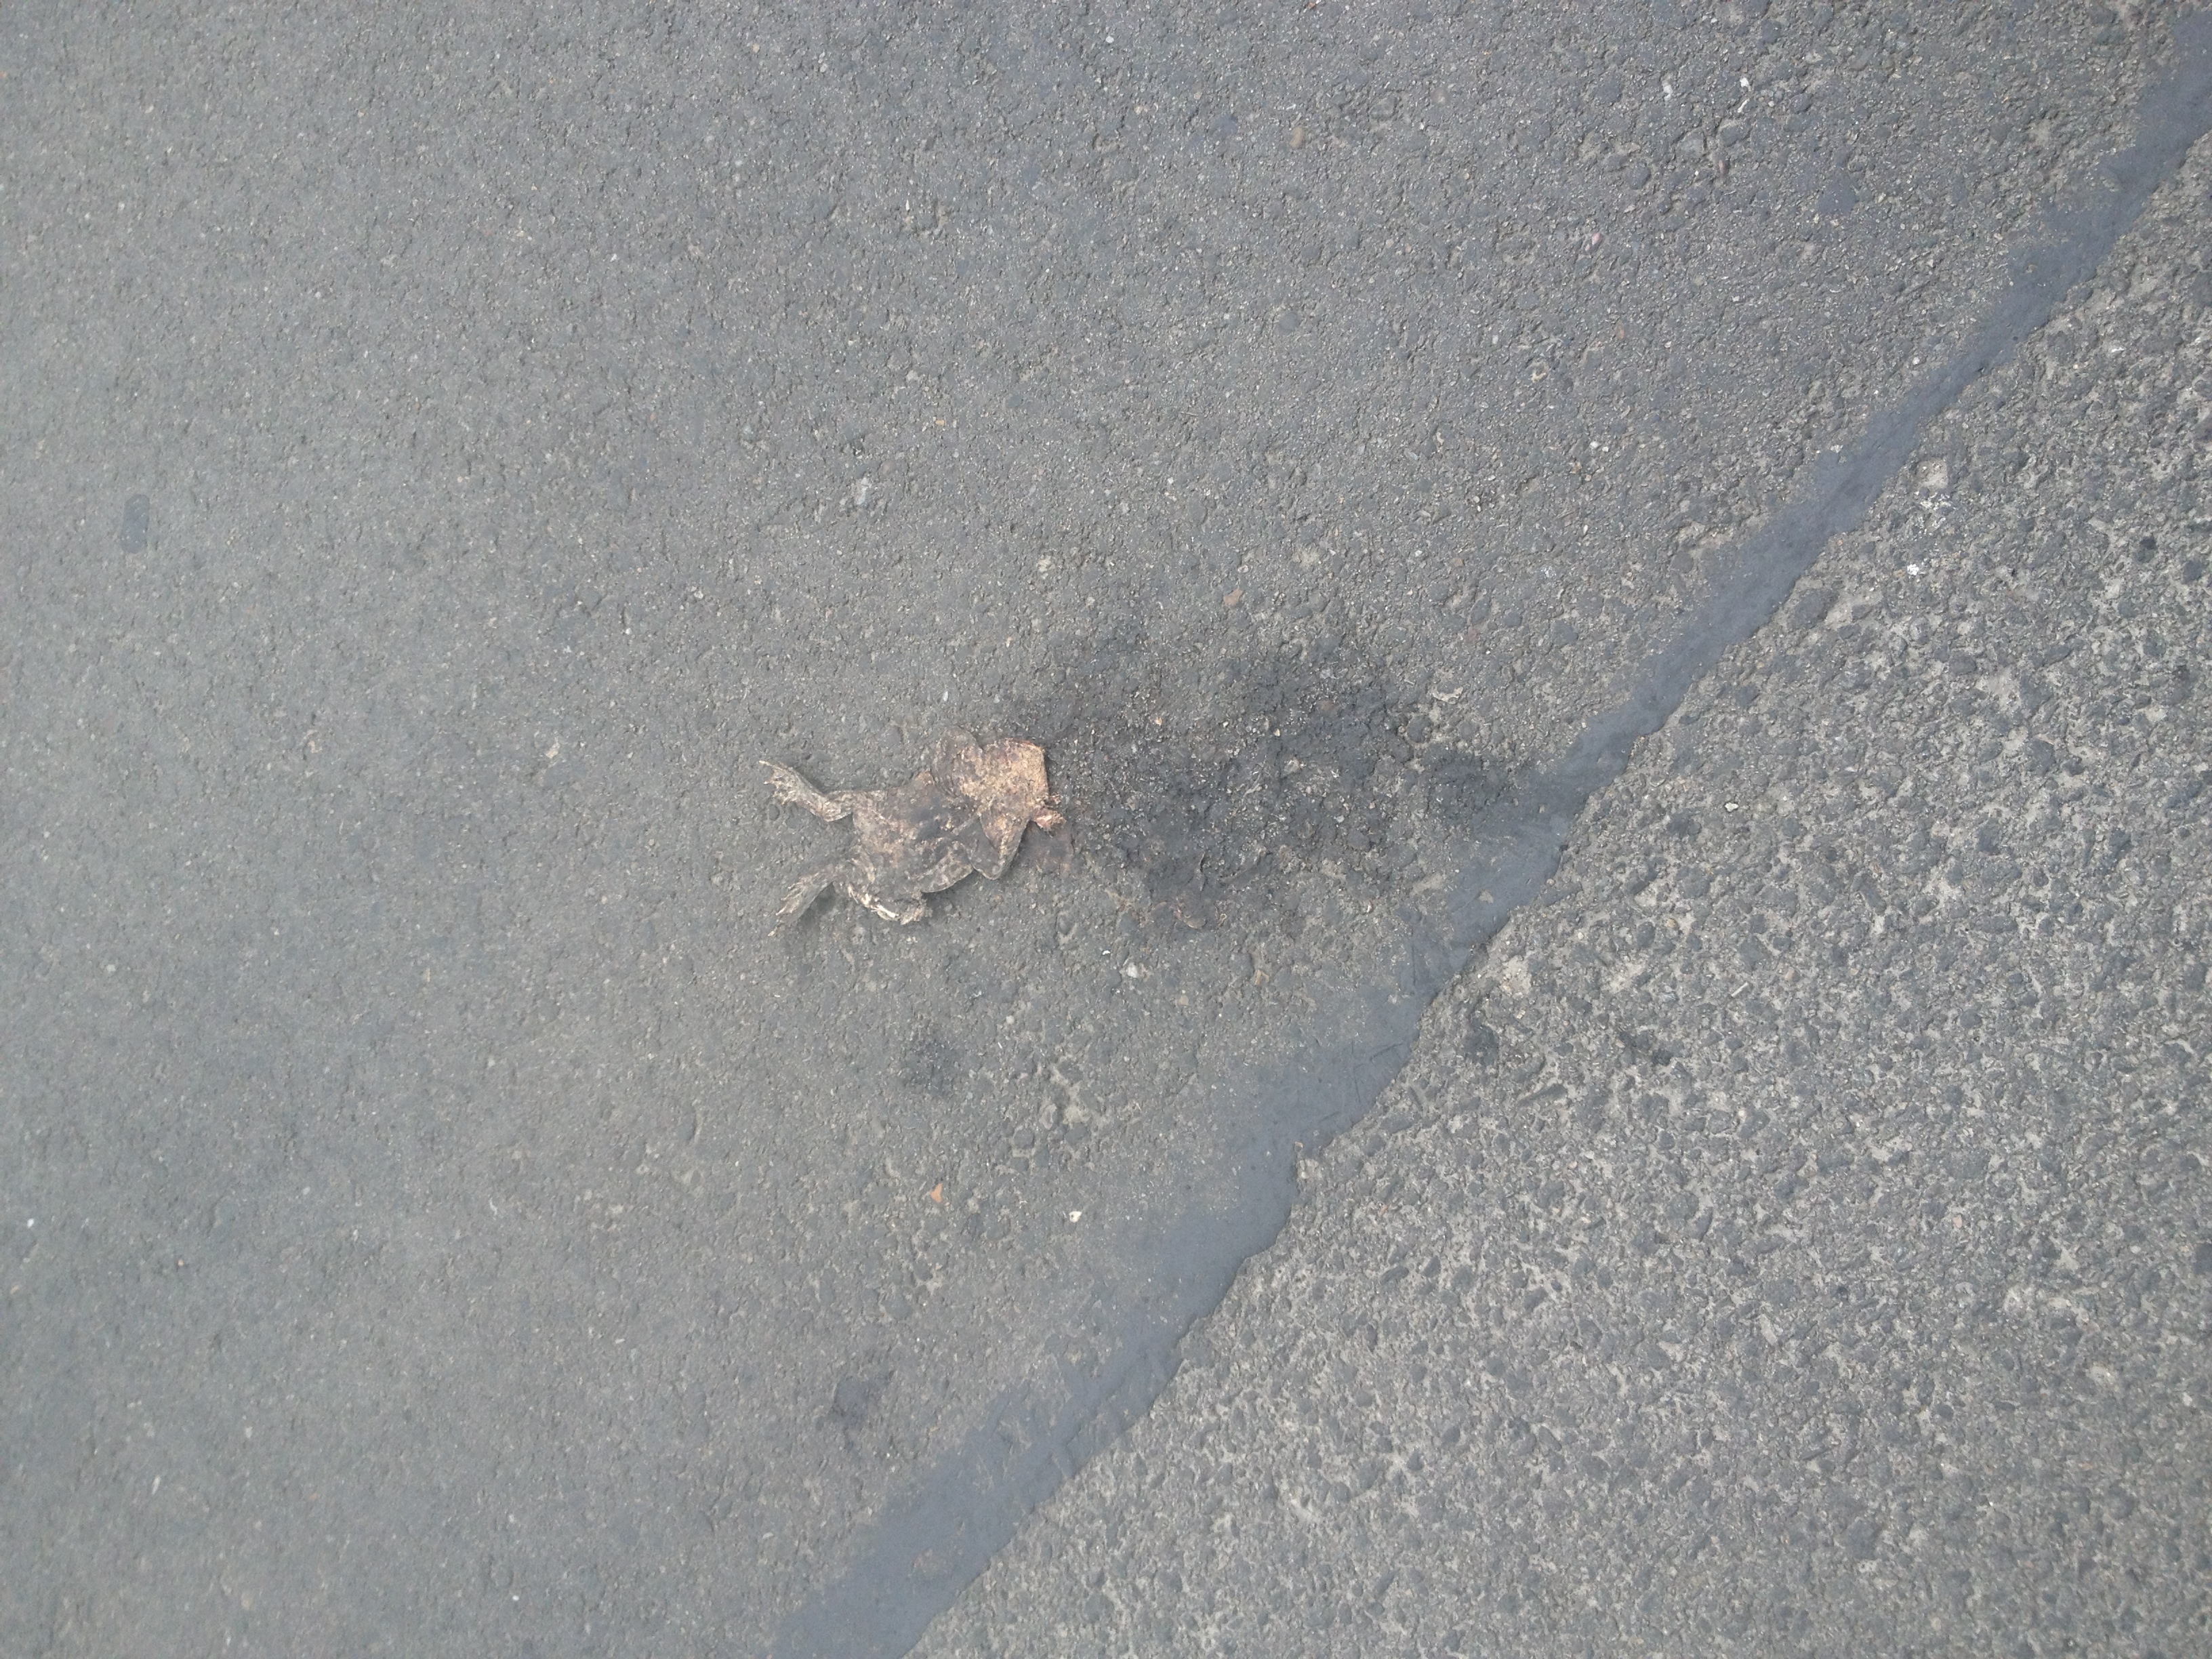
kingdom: Animalia
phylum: Chordata
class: Amphibia
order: Anura
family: Bufonidae
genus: Bufo
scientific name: Bufo bufo
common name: Common toad
